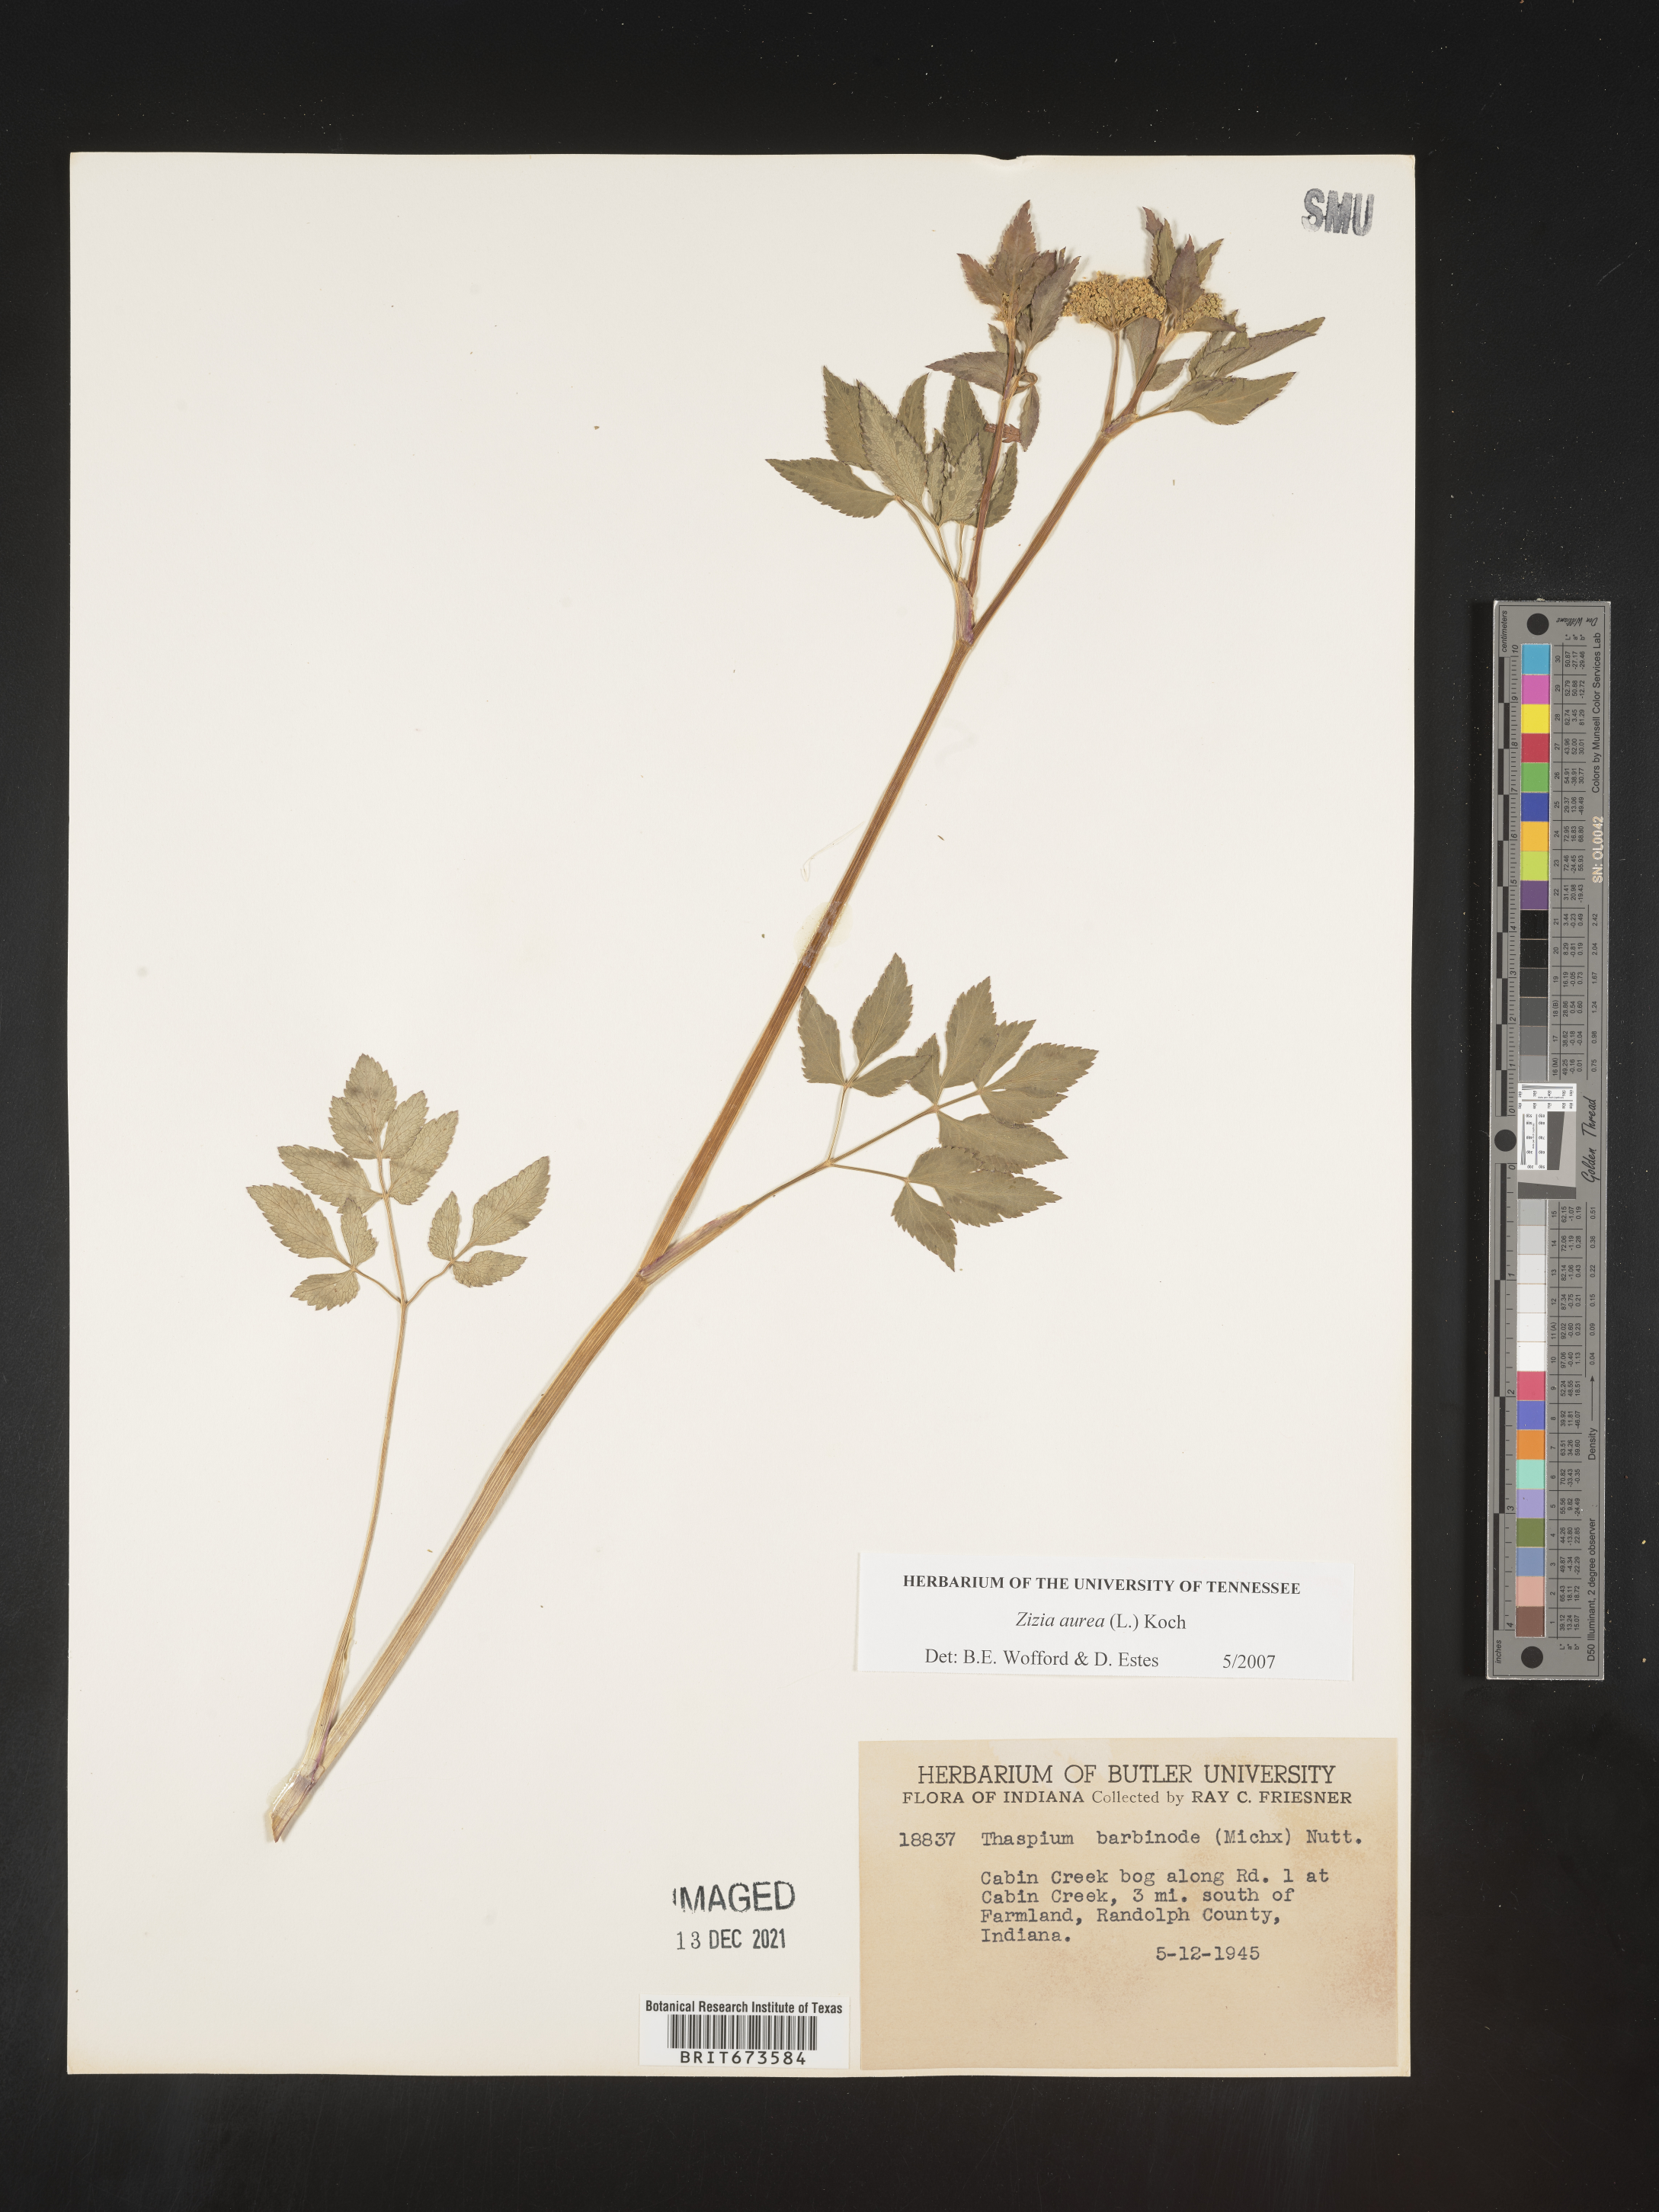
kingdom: Plantae
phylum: Tracheophyta
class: Magnoliopsida
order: Apiales
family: Apiaceae
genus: Zizia
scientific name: Zizia aurea
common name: Golden alexanders
